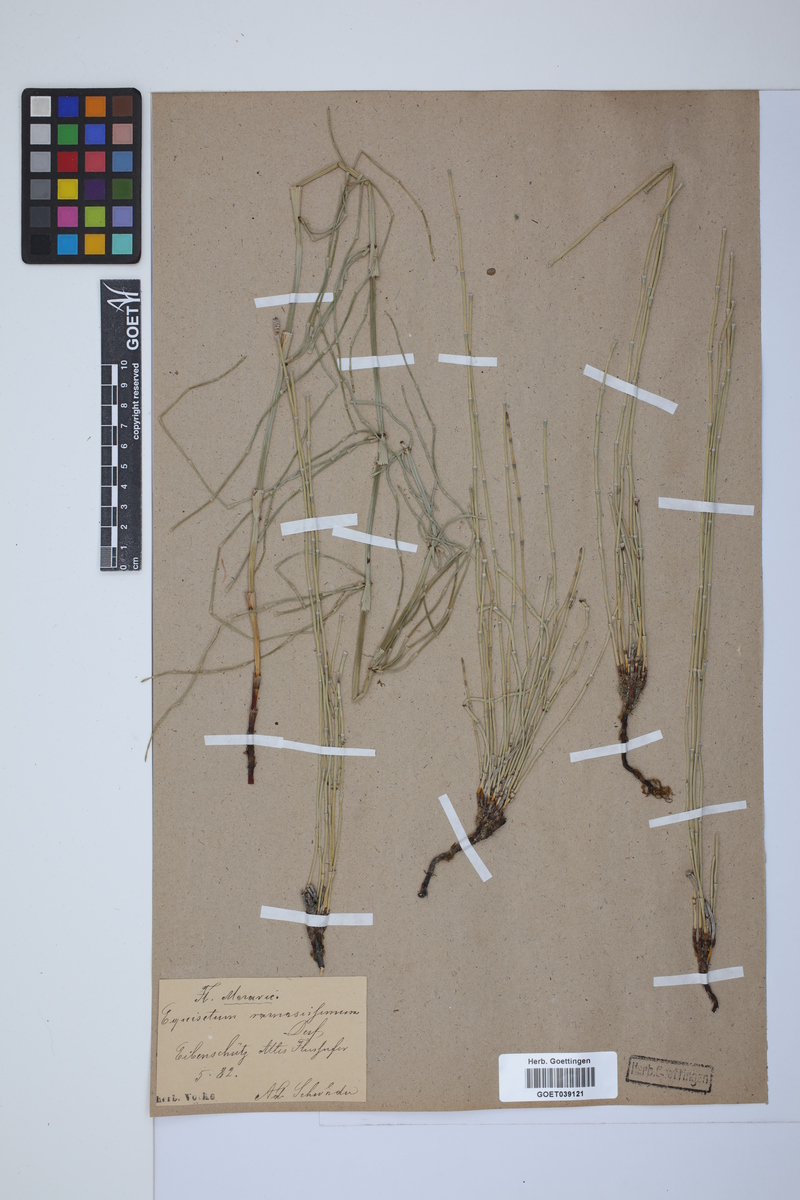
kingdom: Plantae
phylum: Tracheophyta
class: Polypodiopsida
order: Equisetales
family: Equisetaceae
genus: Equisetum
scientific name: Equisetum giganteum
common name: Giant horsetail
